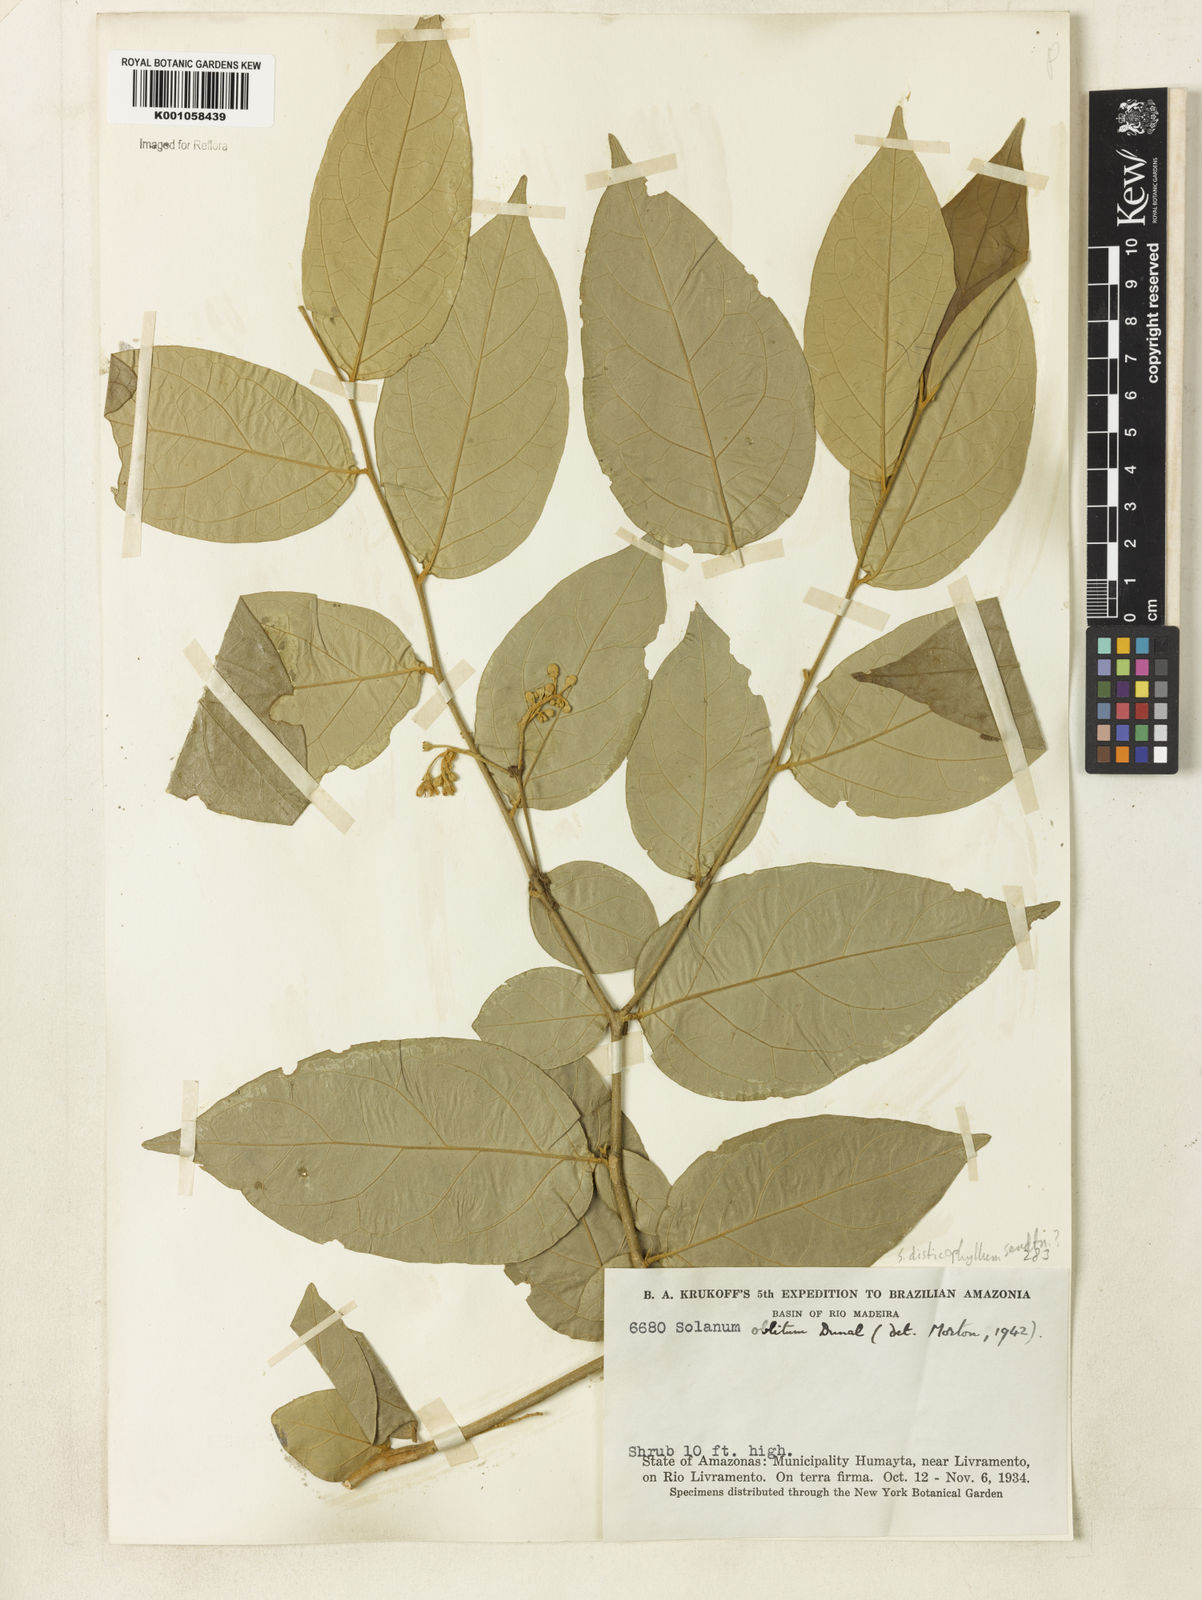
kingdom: Plantae
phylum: Tracheophyta
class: Magnoliopsida
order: Solanales
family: Solanaceae
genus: Solanum
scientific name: Solanum obliquum
